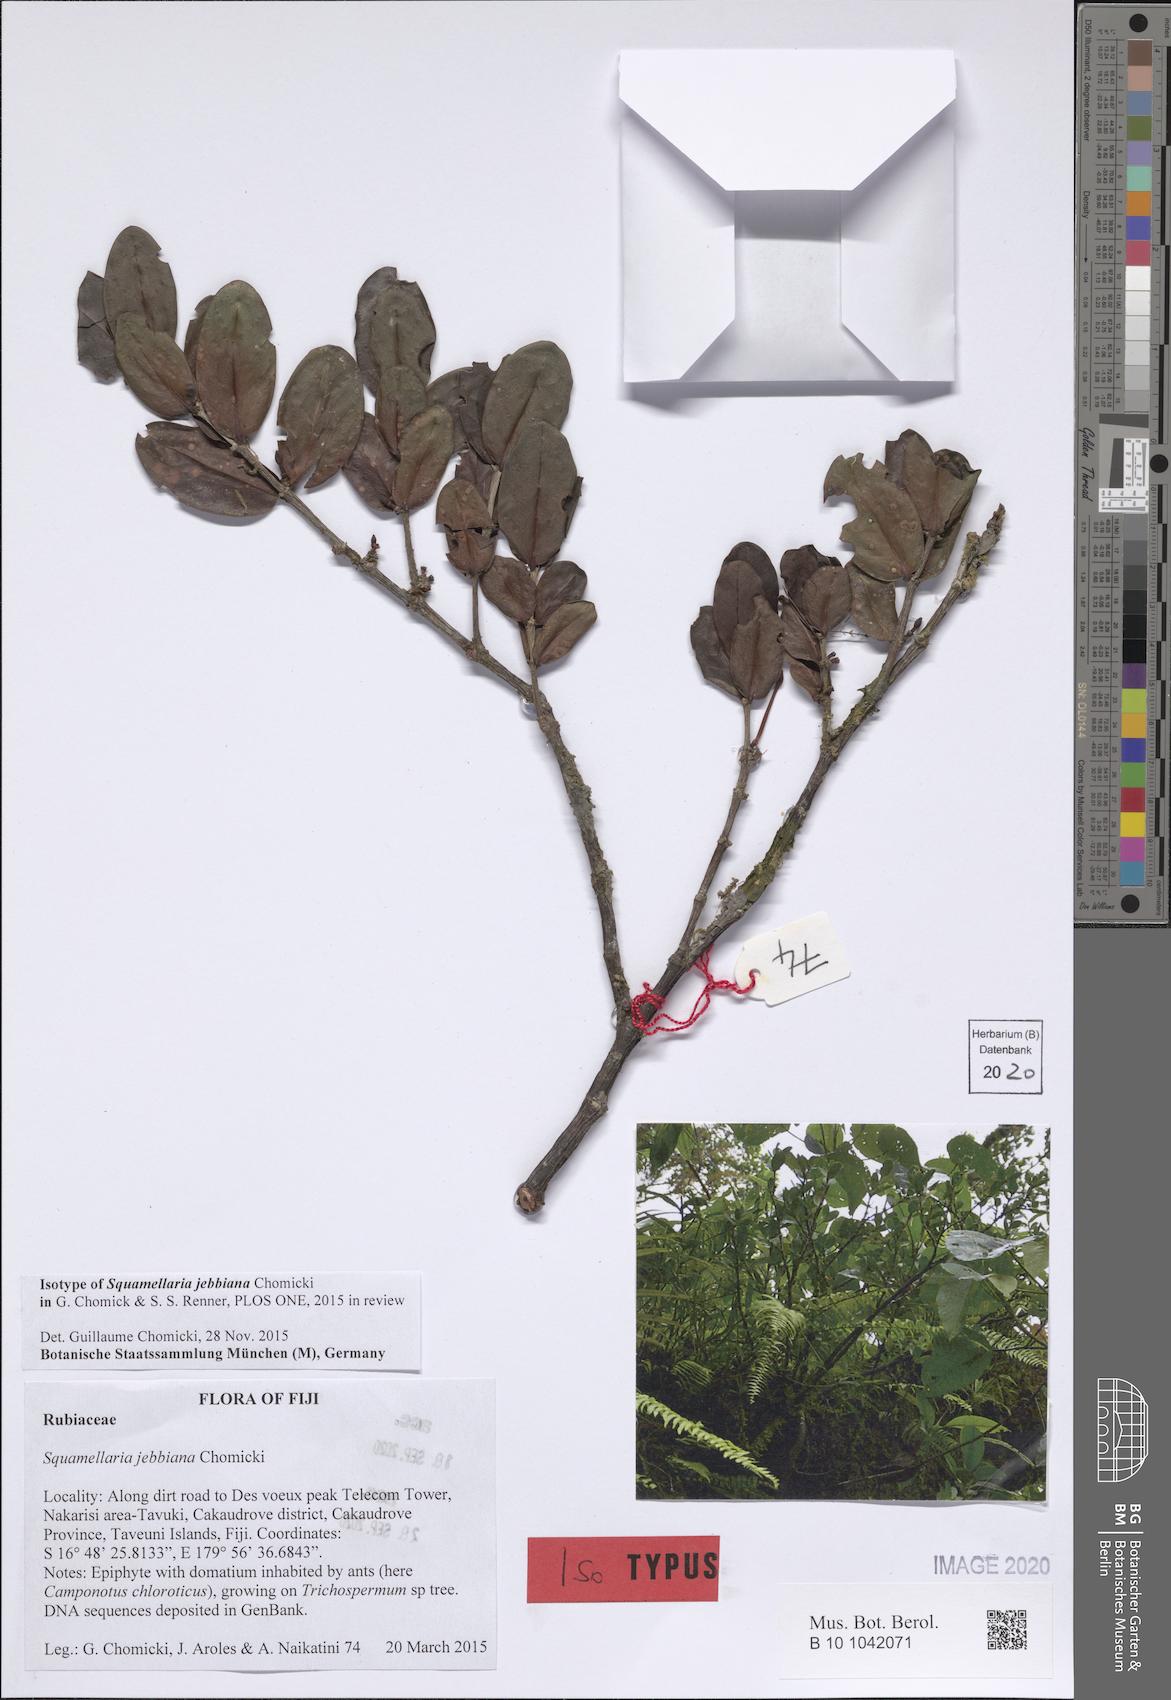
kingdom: Plantae
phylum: Tracheophyta
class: Magnoliopsida
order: Gentianales
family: Rubiaceae
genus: Hydnophytum
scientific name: Hydnophytum grandiflorum
